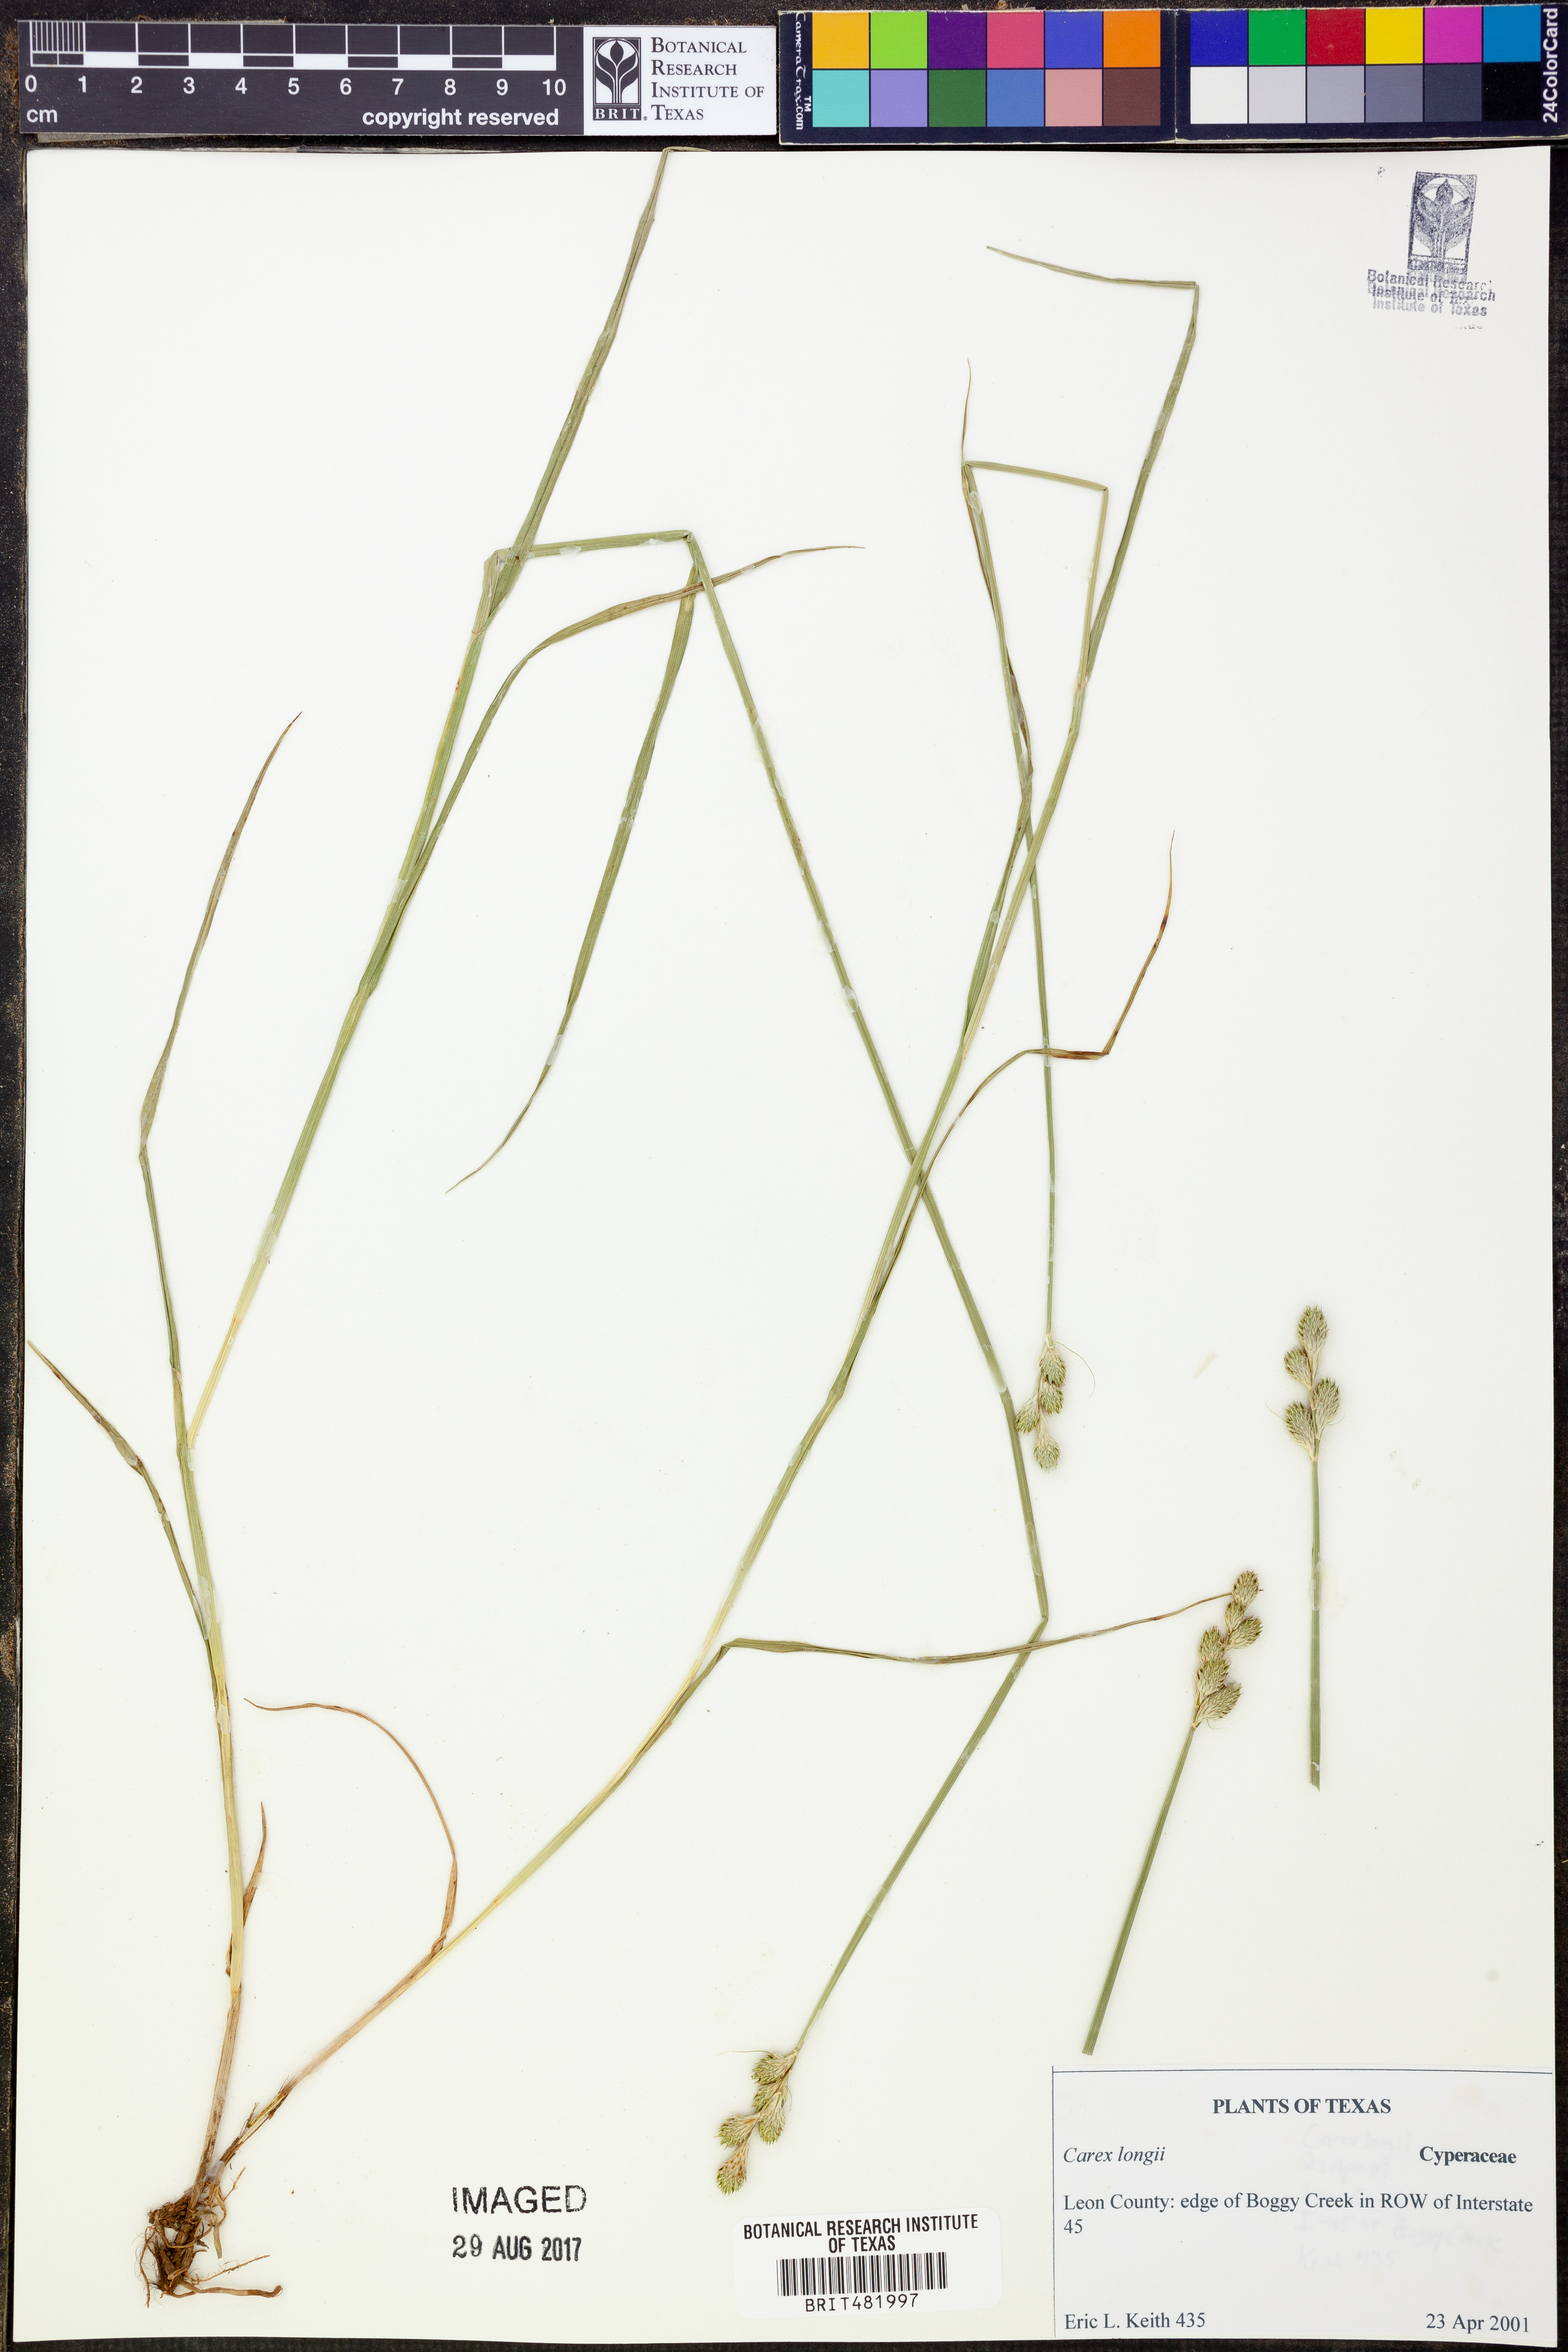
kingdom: Plantae
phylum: Tracheophyta
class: Liliopsida
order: Poales
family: Cyperaceae
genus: Carex
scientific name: Carex longii
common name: Long's sedge
